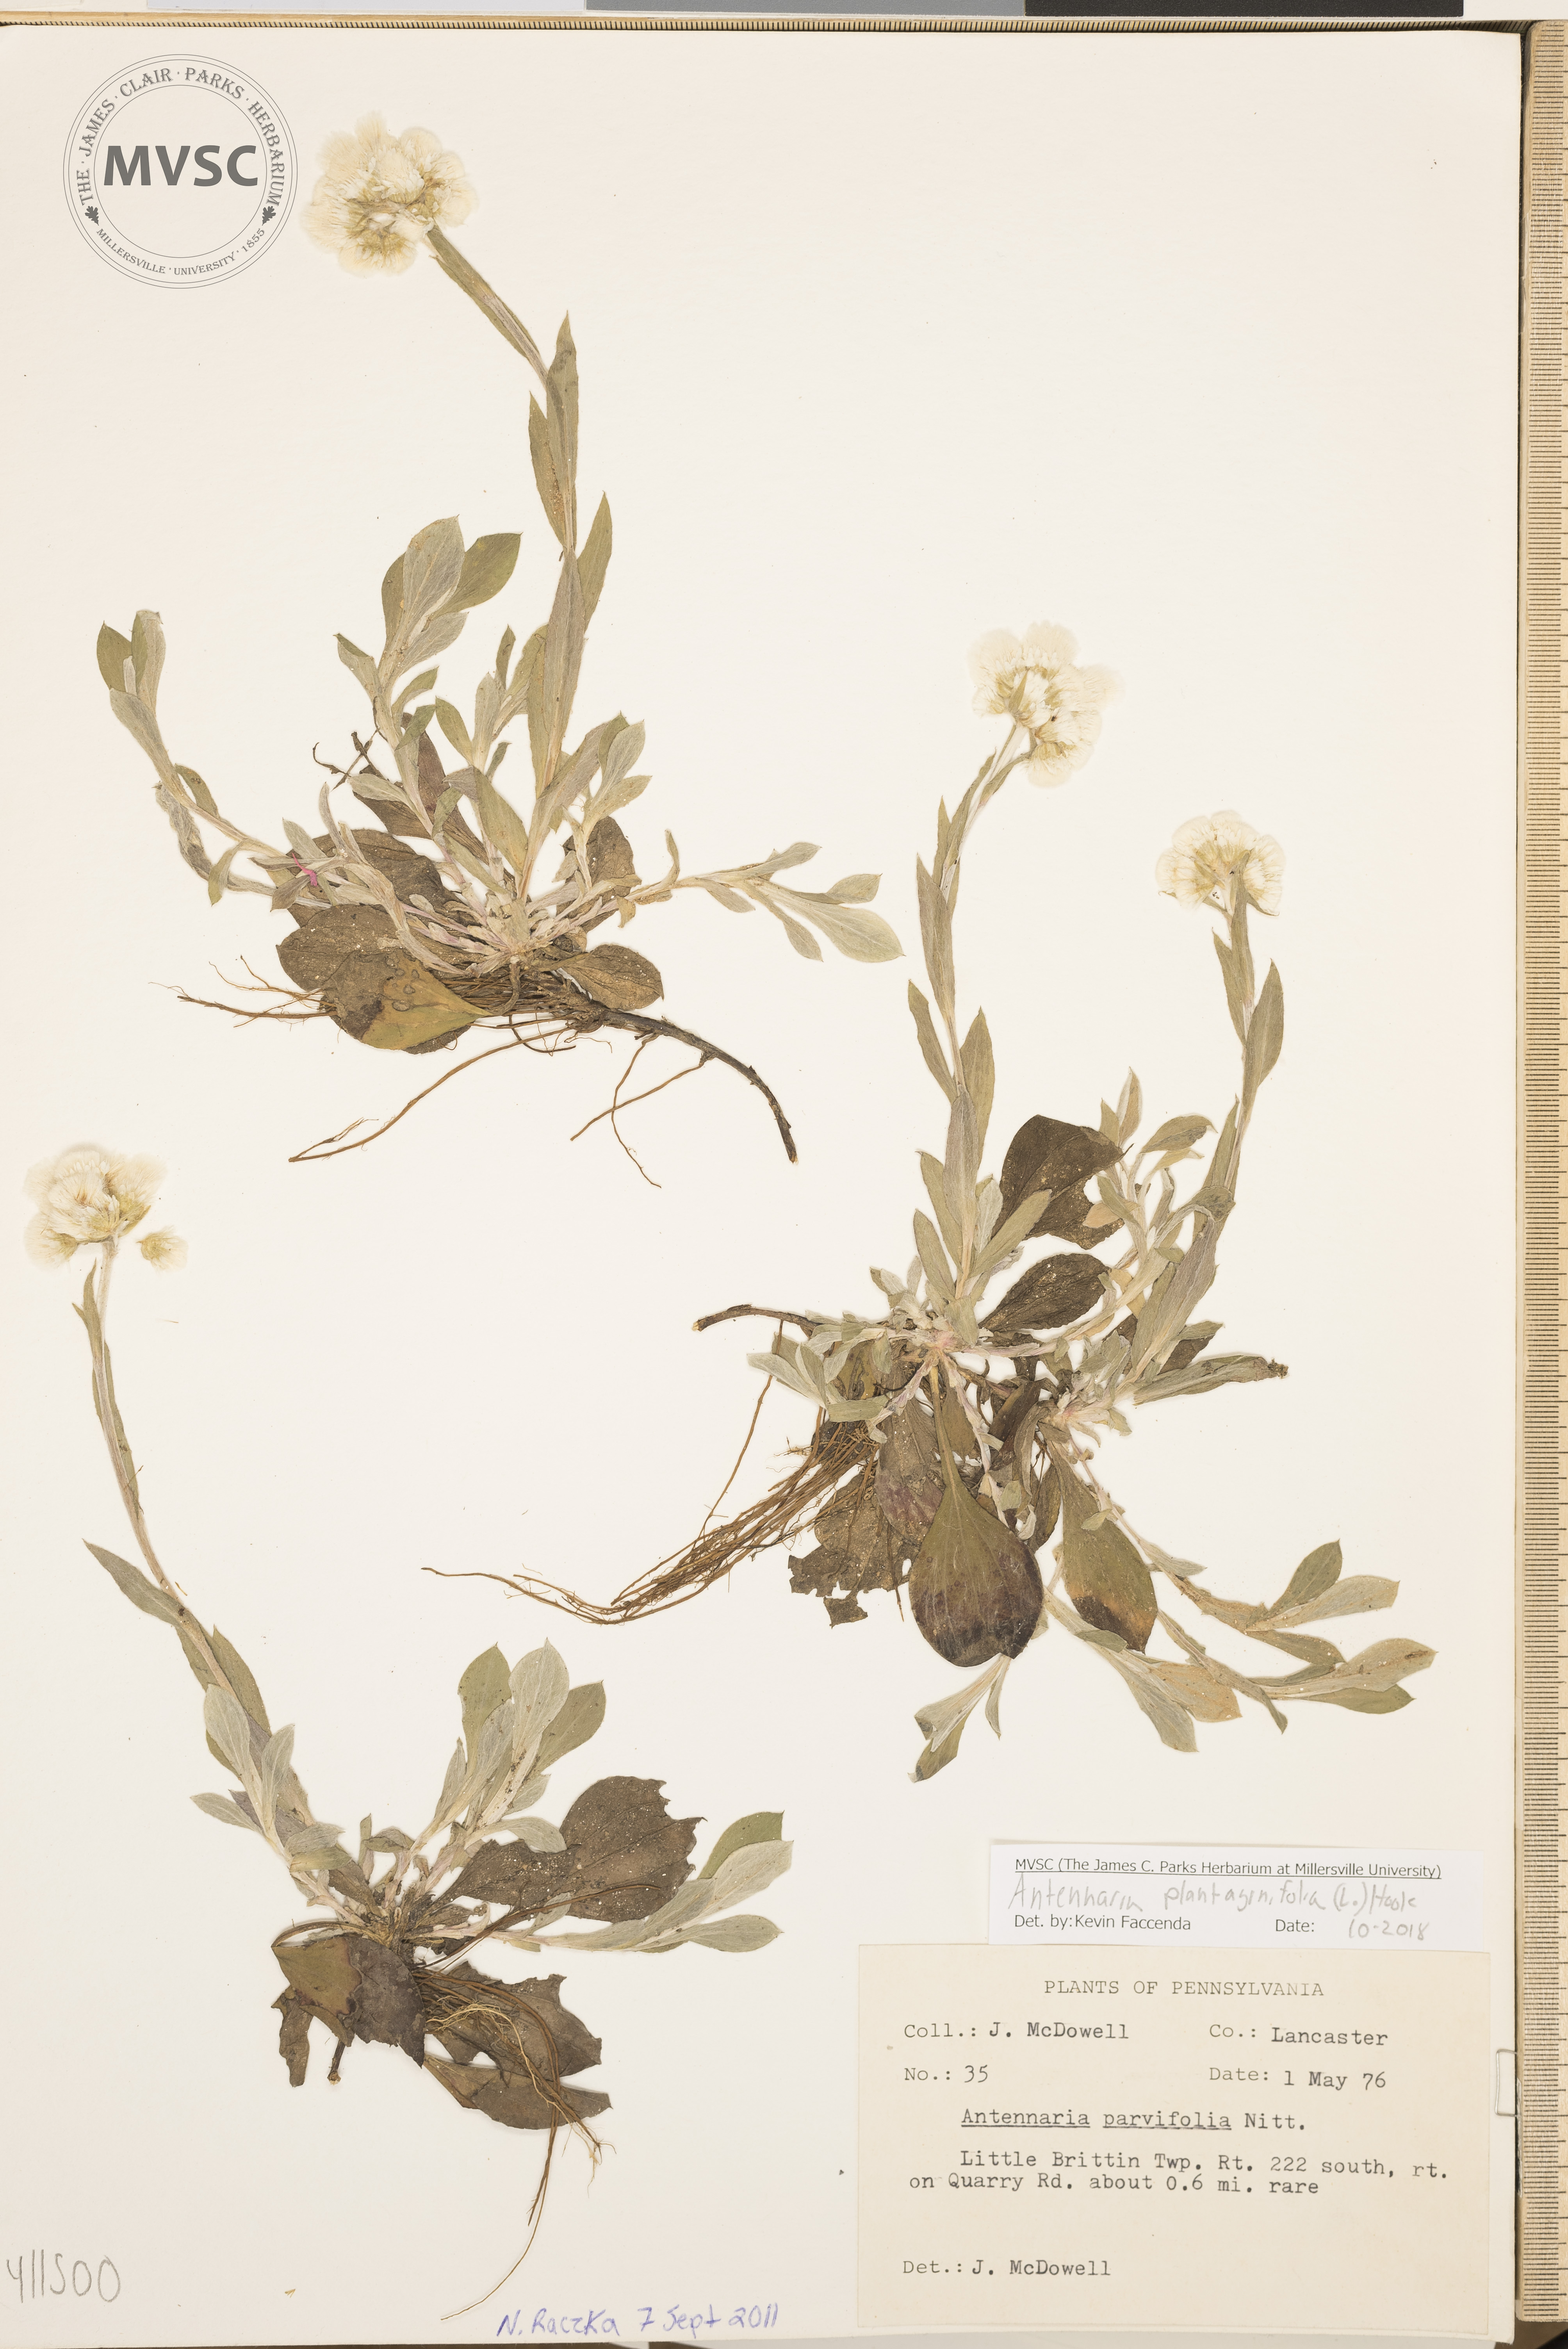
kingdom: Plantae
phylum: Tracheophyta
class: Magnoliopsida
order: Asterales
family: Asteraceae
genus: Antennaria
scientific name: Antennaria plantaginifolia
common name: Plantain-leaved pussytoes
